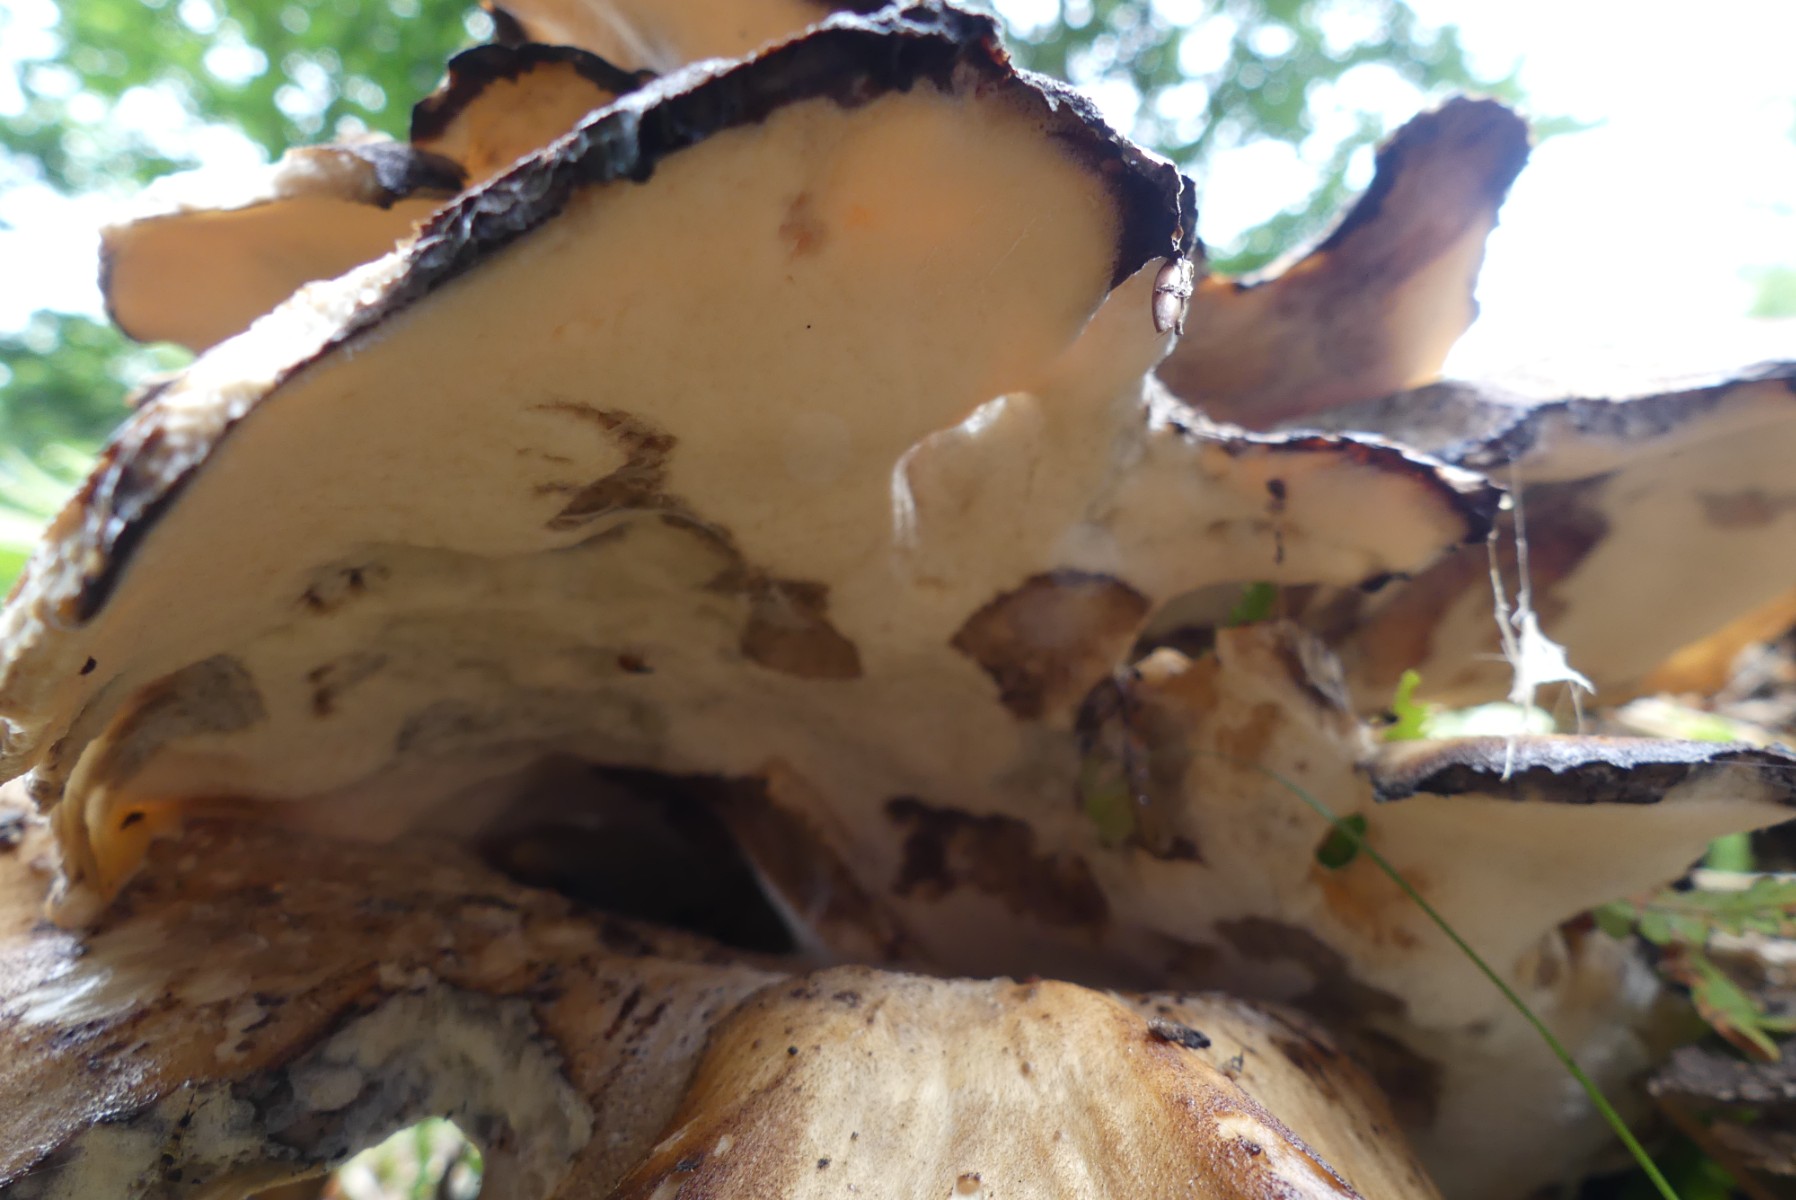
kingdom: Fungi
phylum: Basidiomycota
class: Agaricomycetes
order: Polyporales
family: Meripilaceae
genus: Meripilus
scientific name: Meripilus giganteus
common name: kæmpeporesvamp
